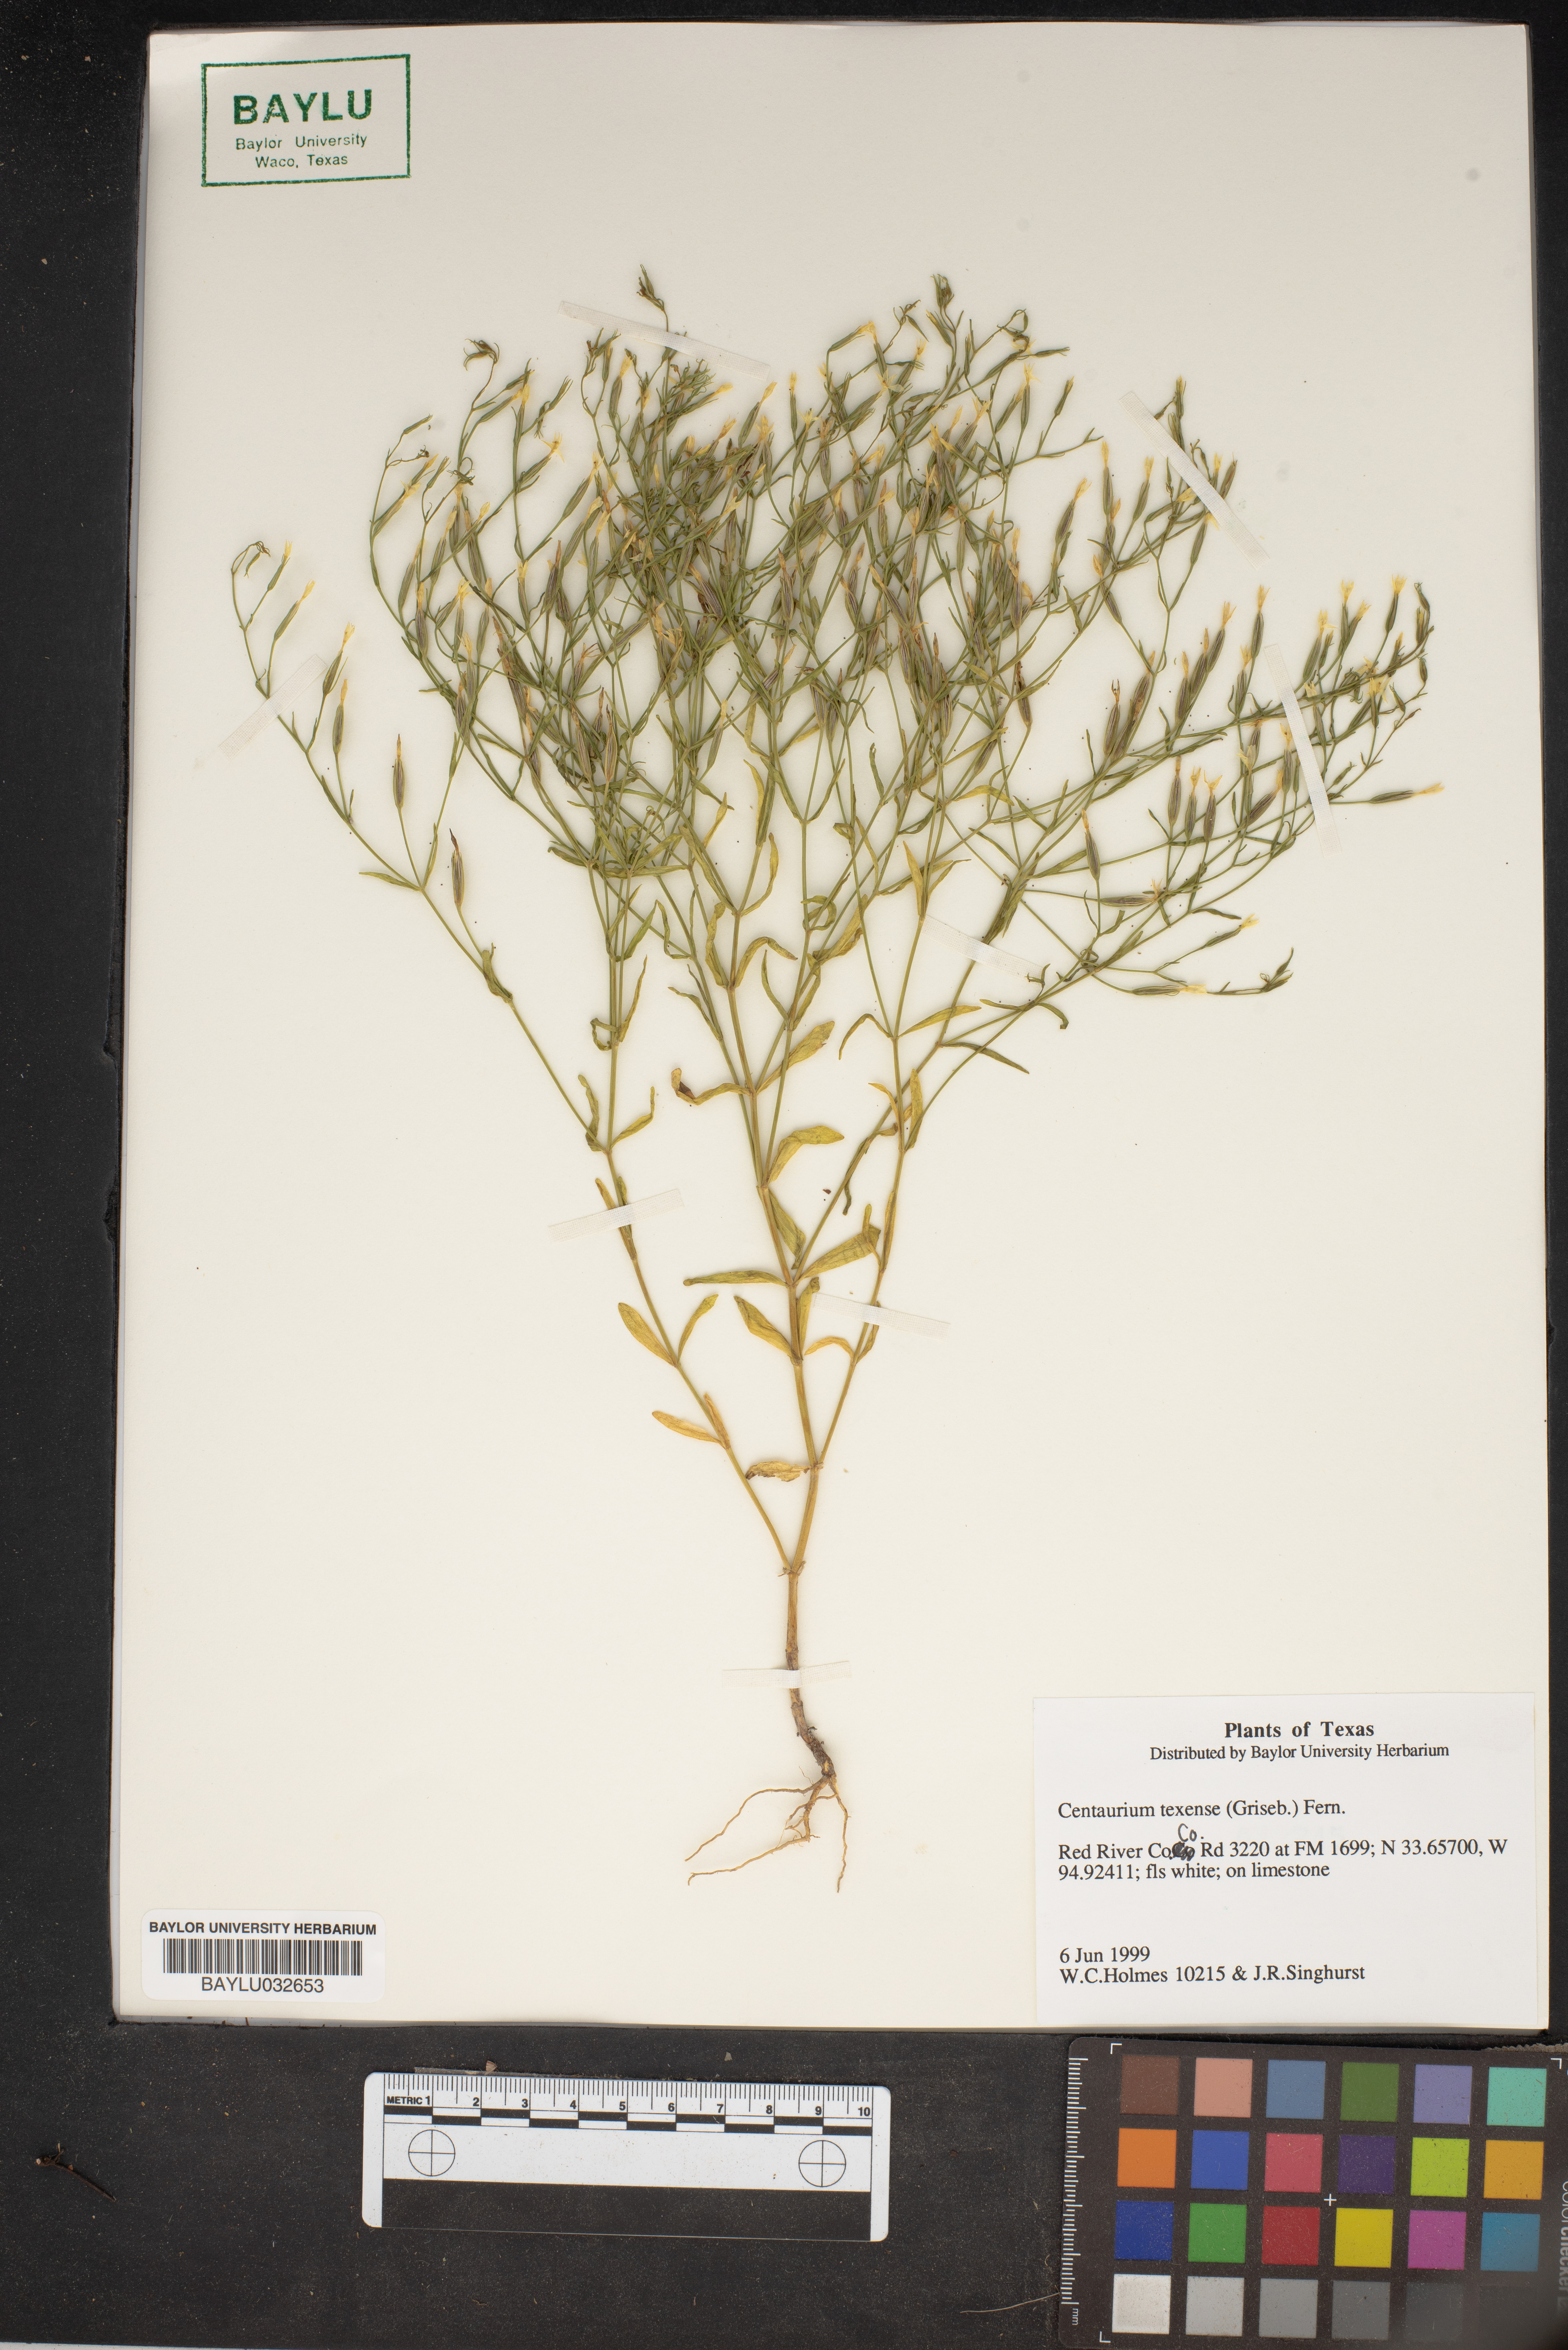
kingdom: Plantae
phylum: Tracheophyta
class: Magnoliopsida
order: Gentianales
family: Gentianaceae
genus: Zeltnera
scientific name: Zeltnera texensis
